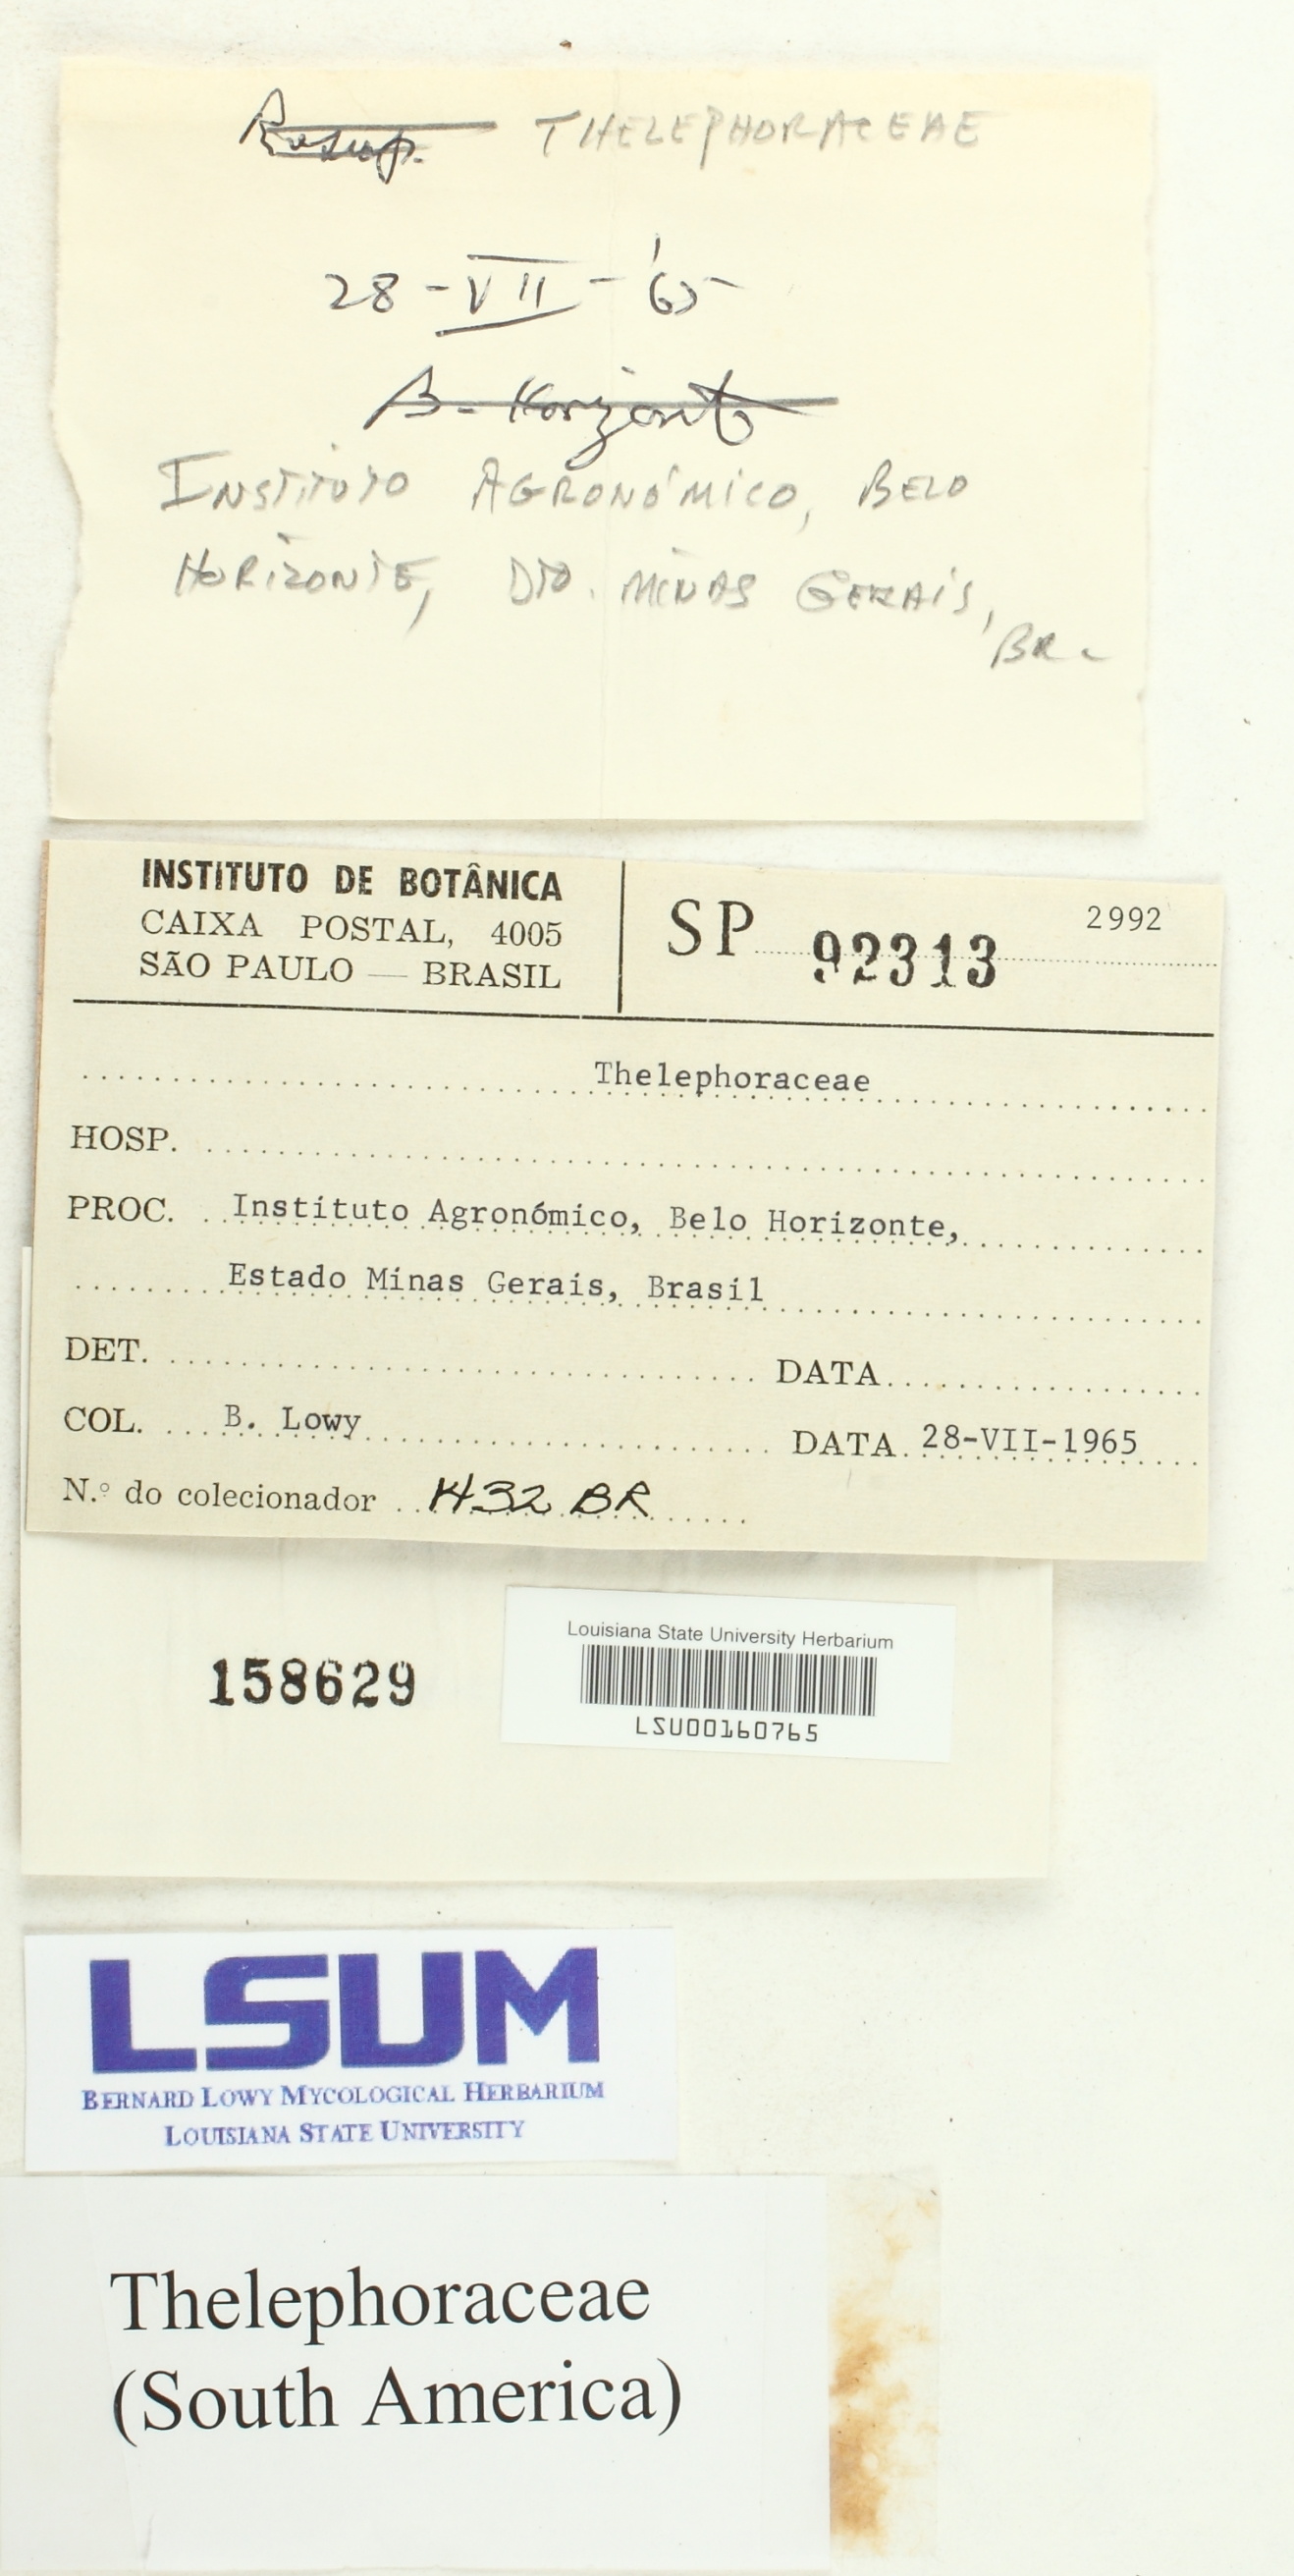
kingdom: Fungi
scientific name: Fungi
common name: Fungi
